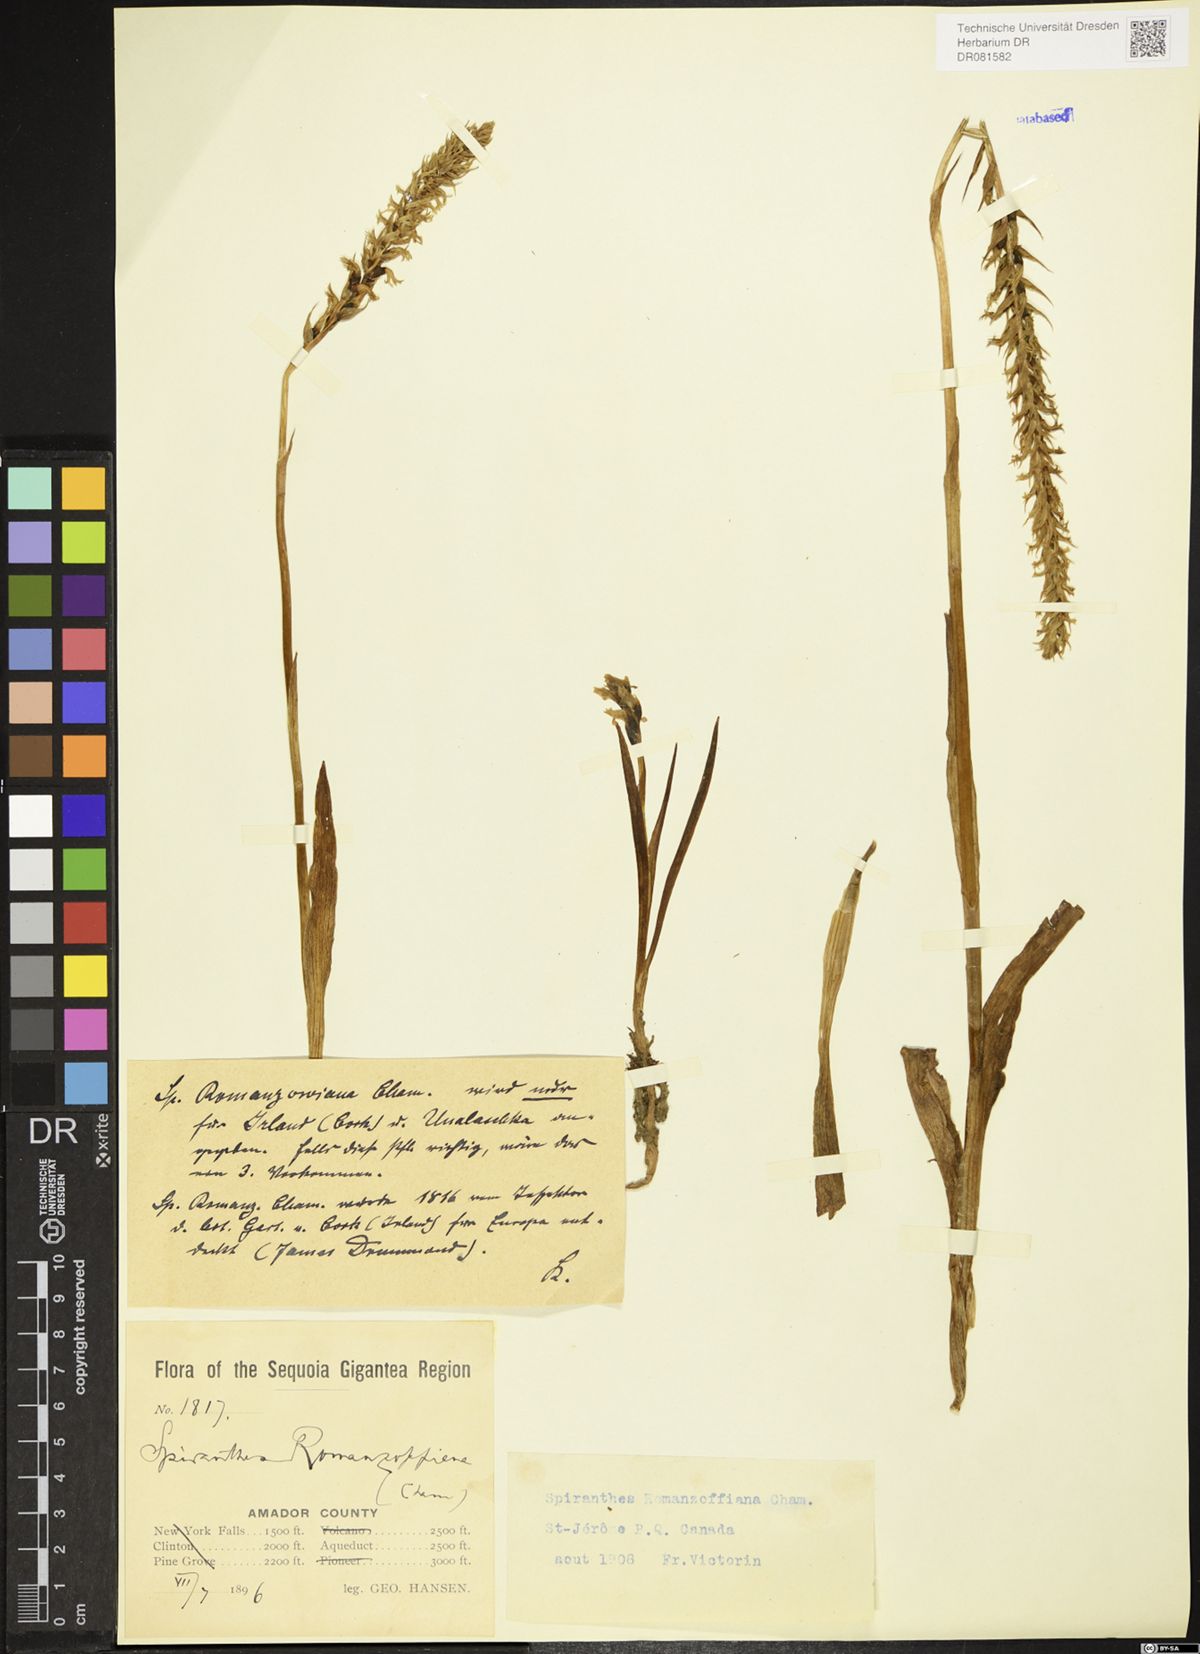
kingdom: Plantae
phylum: Tracheophyta
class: Liliopsida
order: Asparagales
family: Orchidaceae
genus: Spiranthes
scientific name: Spiranthes romanzoffiana
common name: Irish lady's-tresses
